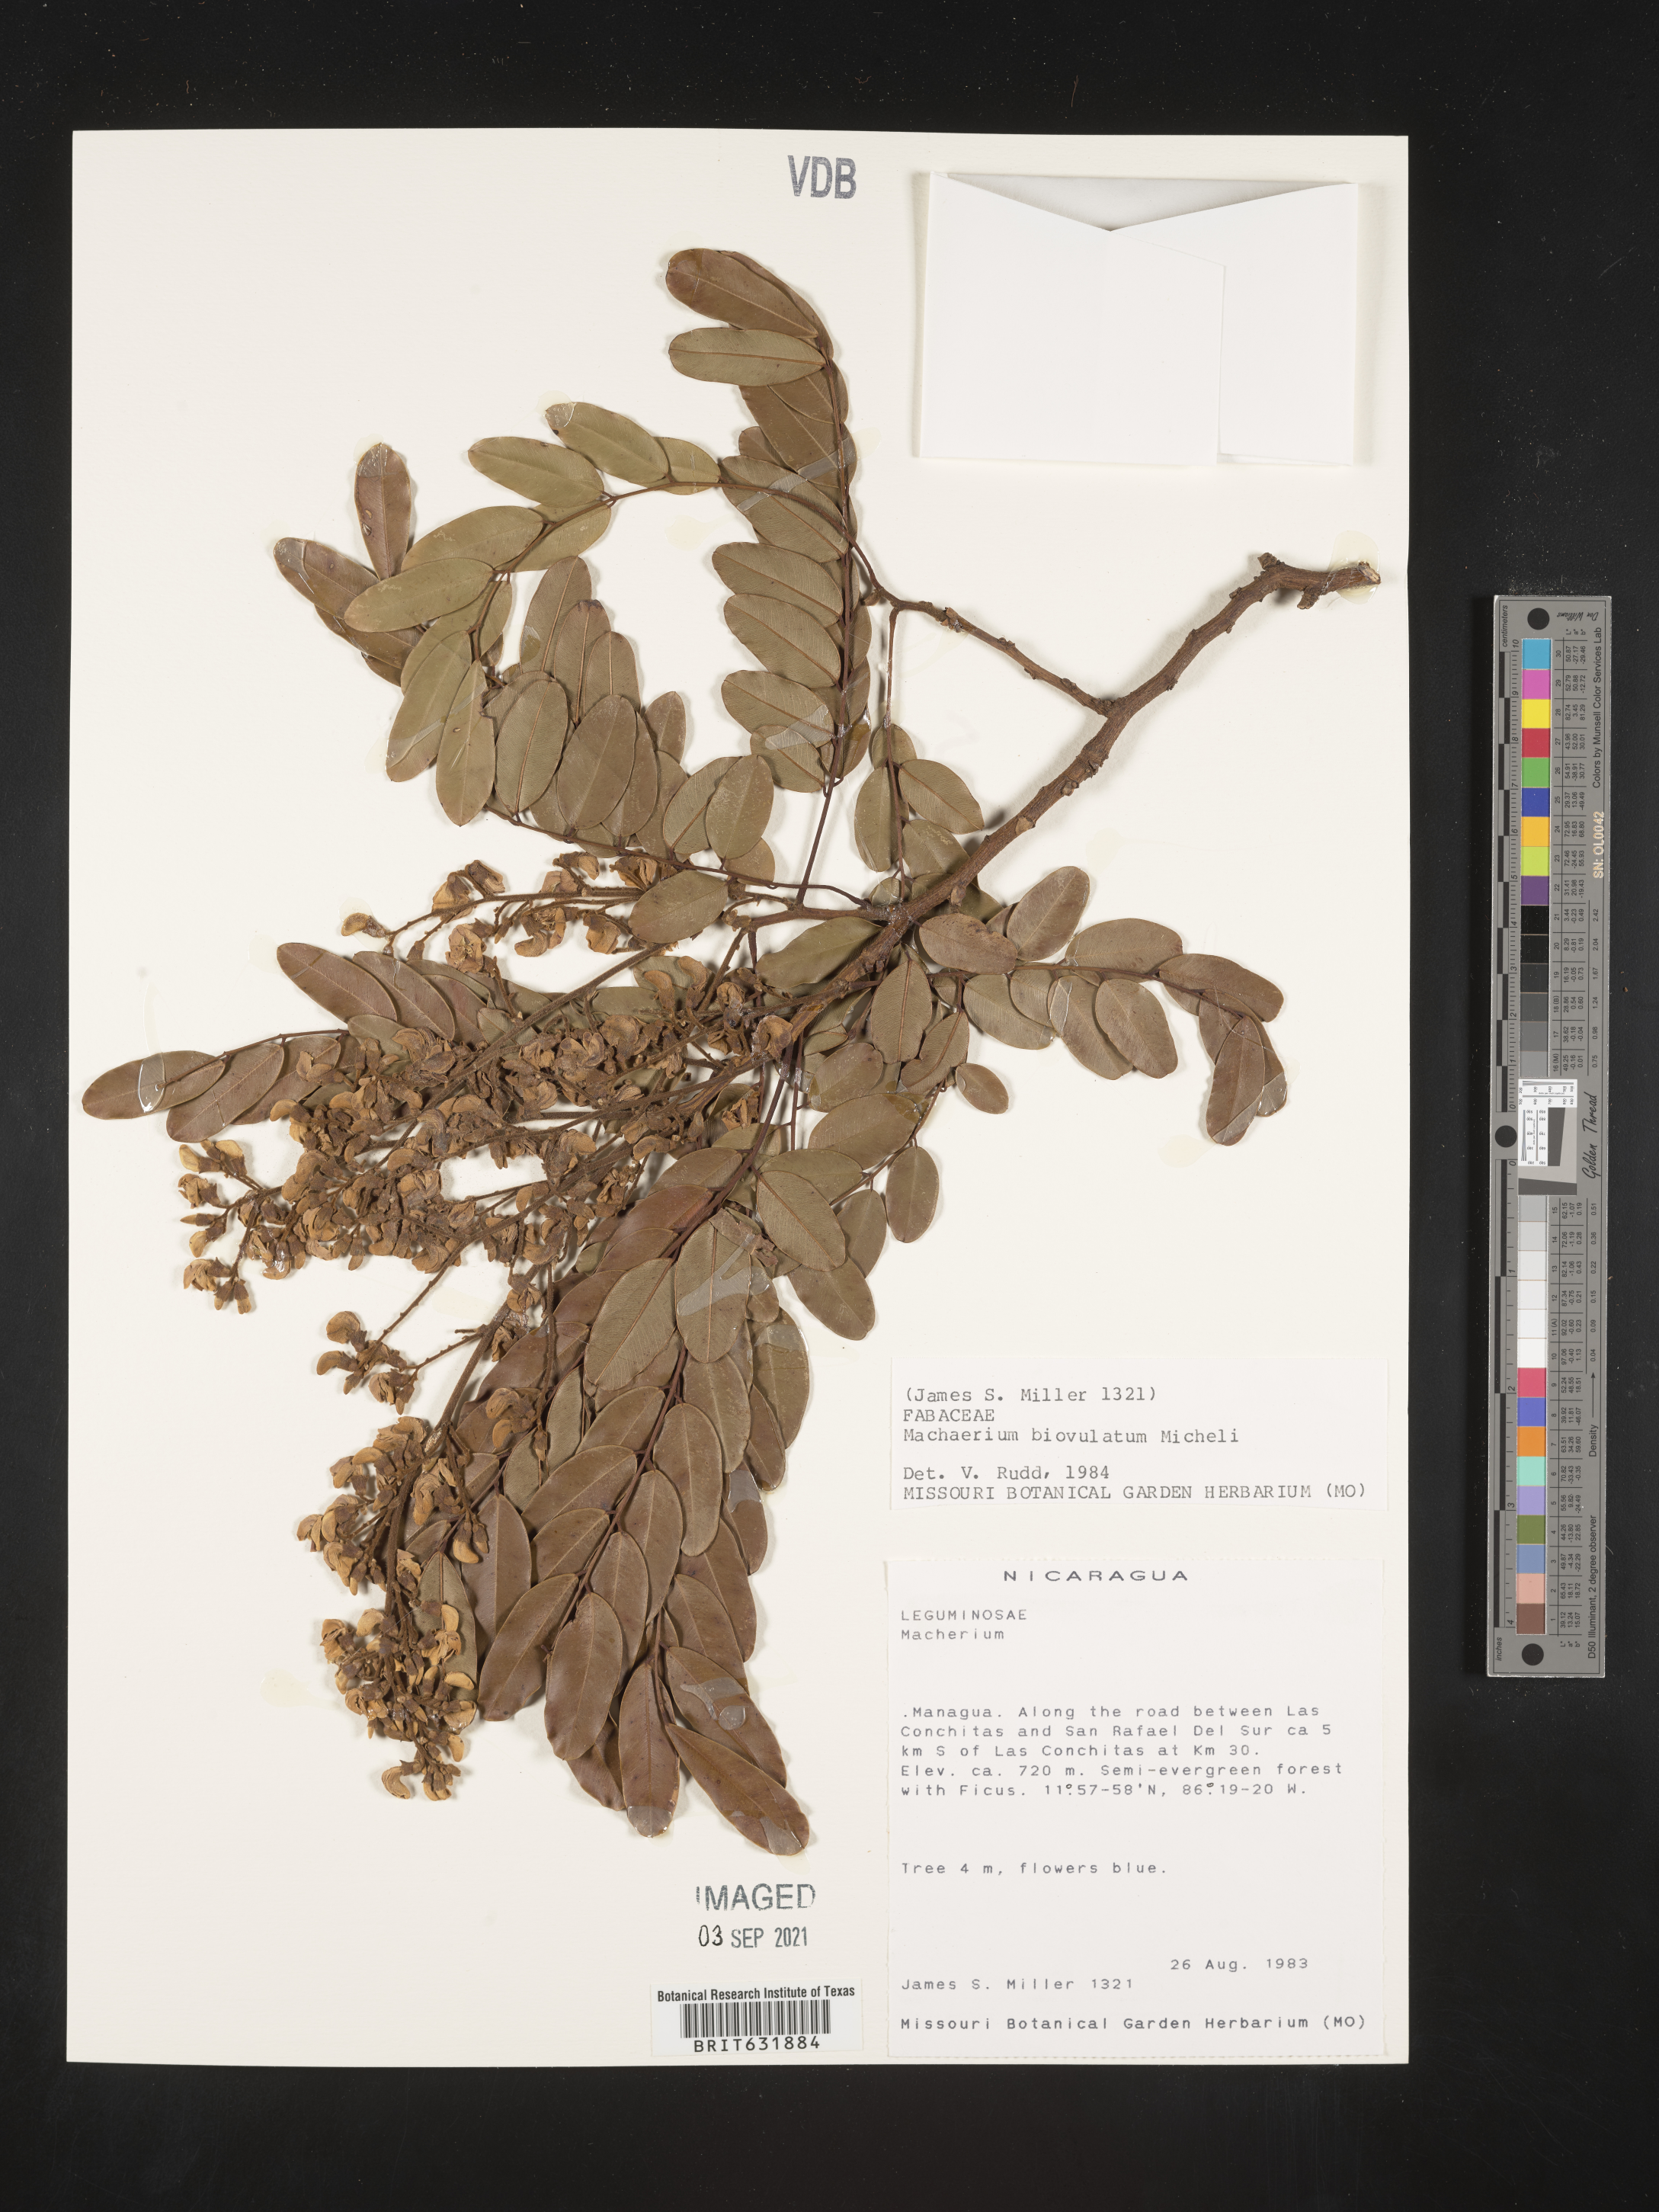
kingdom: Plantae
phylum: Tracheophyta
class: Magnoliopsida
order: Fabales
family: Fabaceae
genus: Machaerium
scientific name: Machaerium
